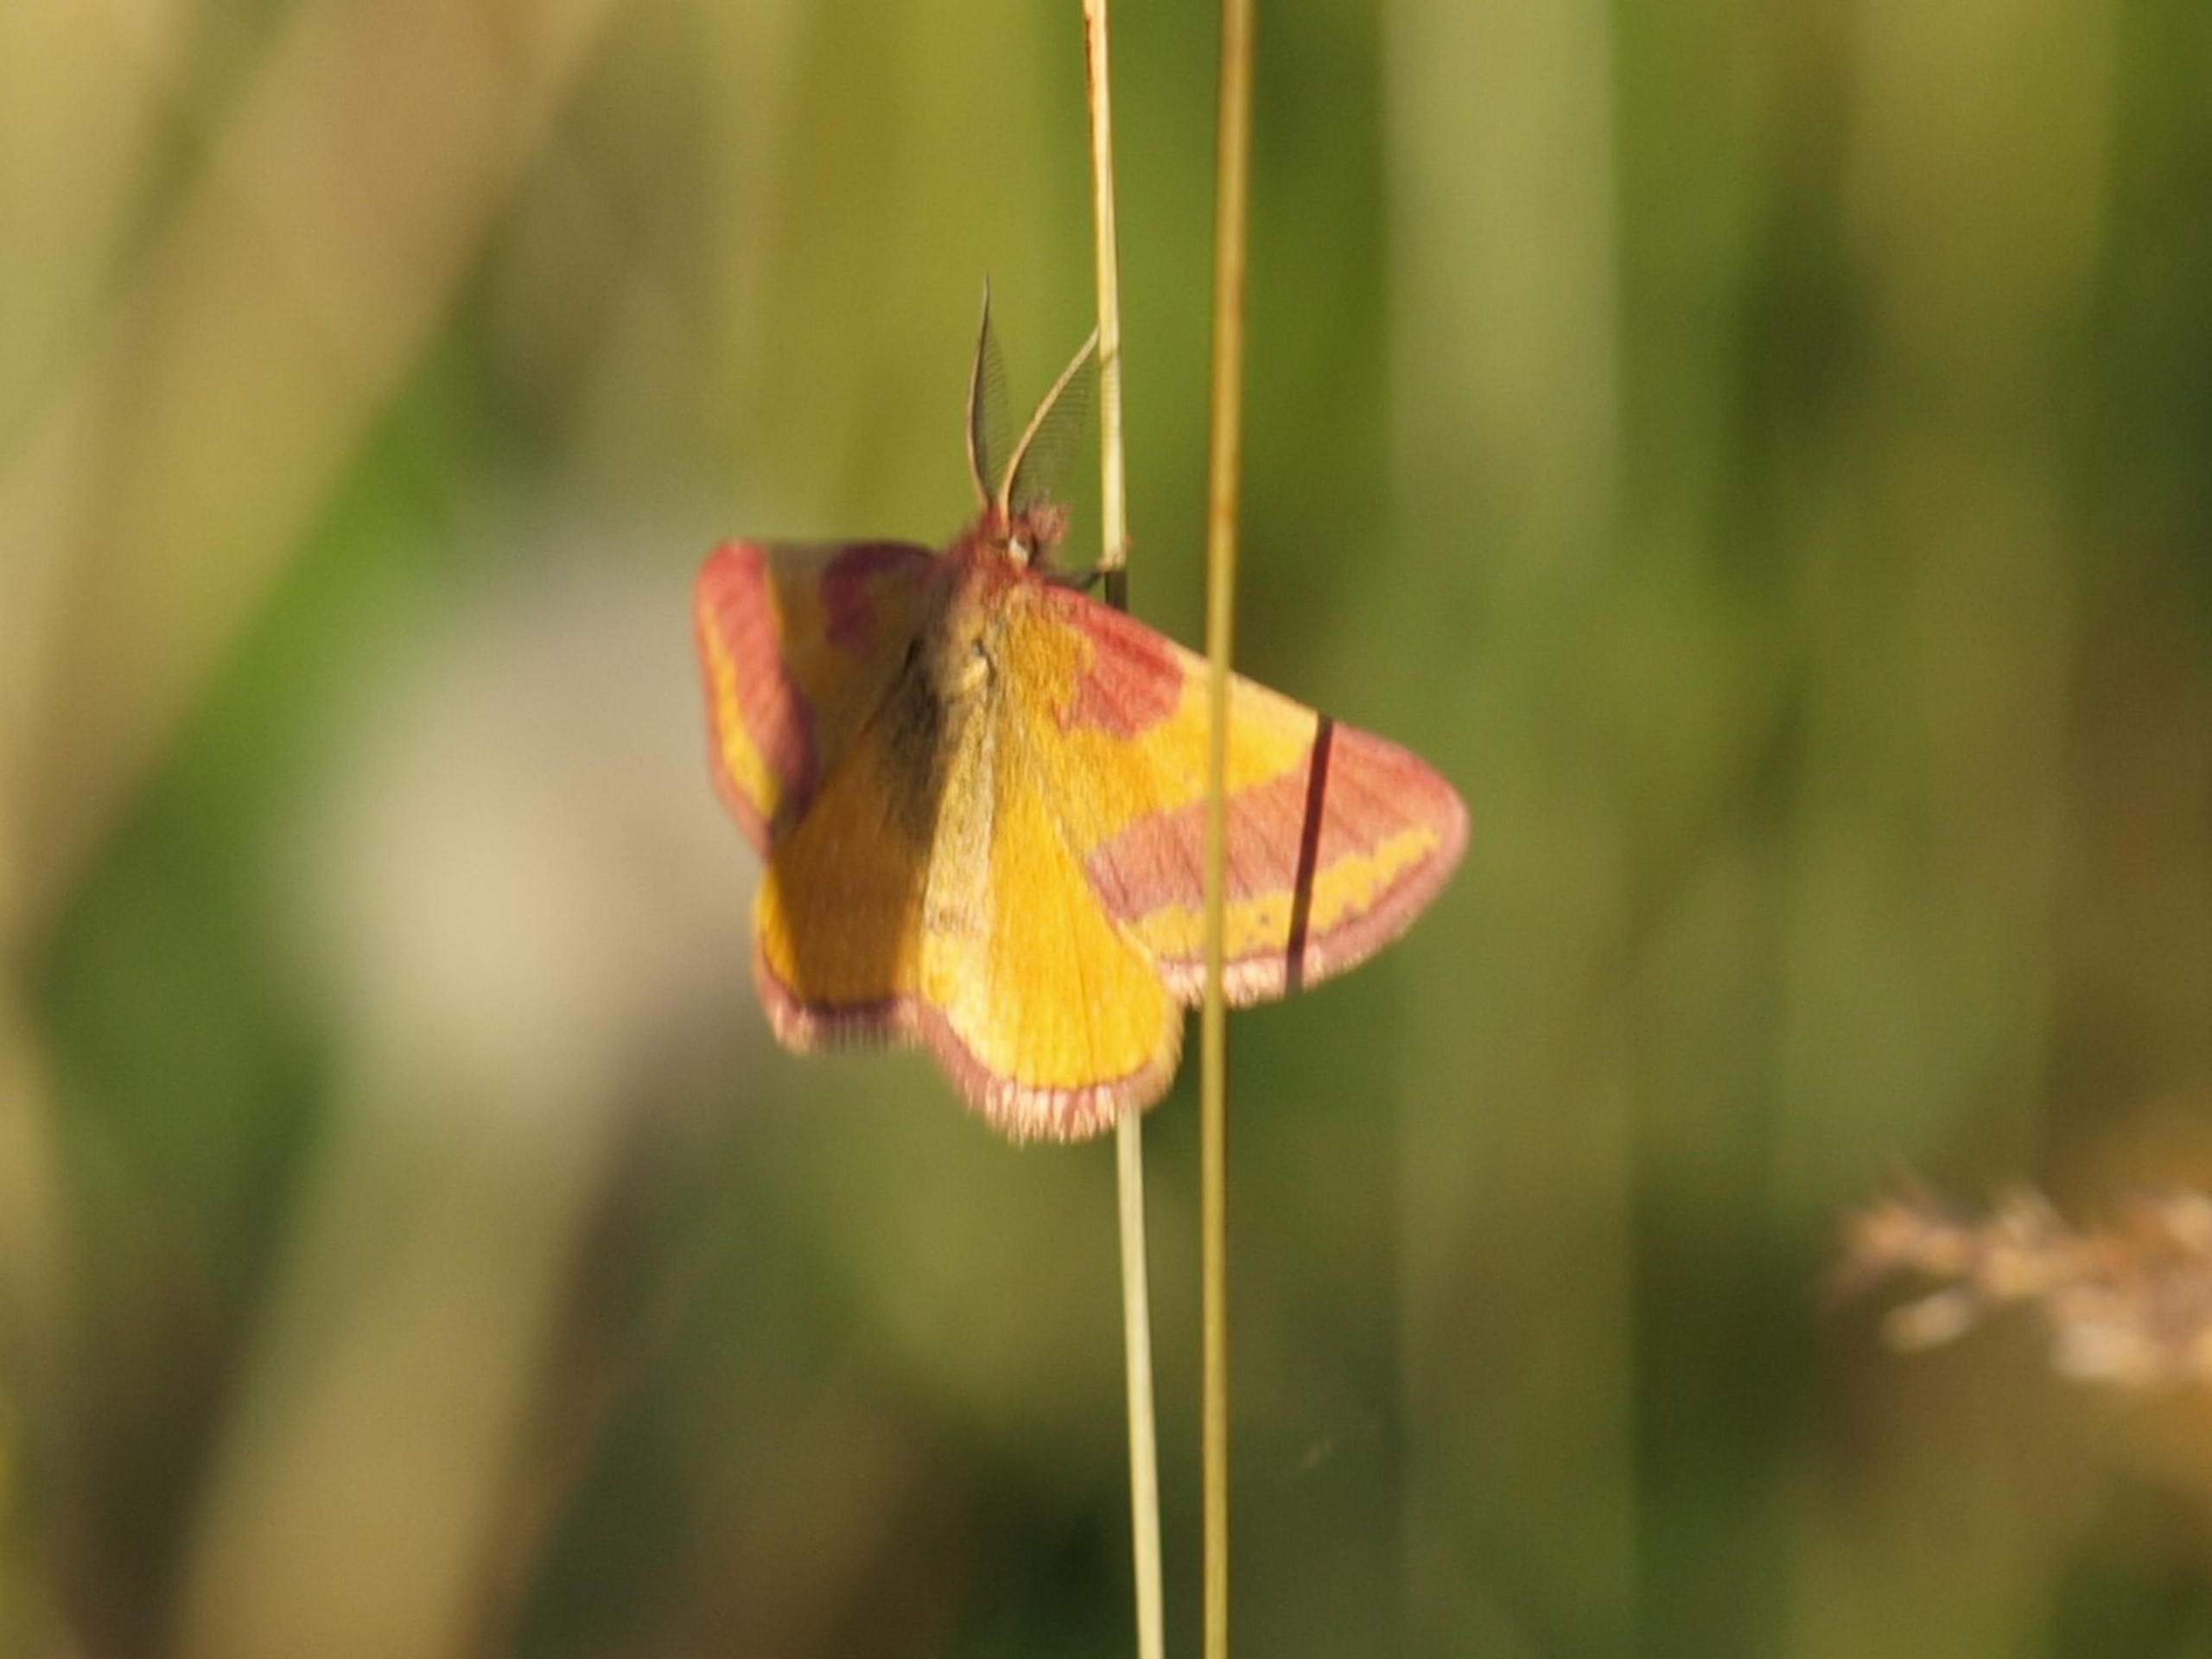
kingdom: Animalia
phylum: Arthropoda
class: Insecta
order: Lepidoptera
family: Geometridae
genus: Lythria
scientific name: Lythria cruentaria
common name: Purpurmåler
